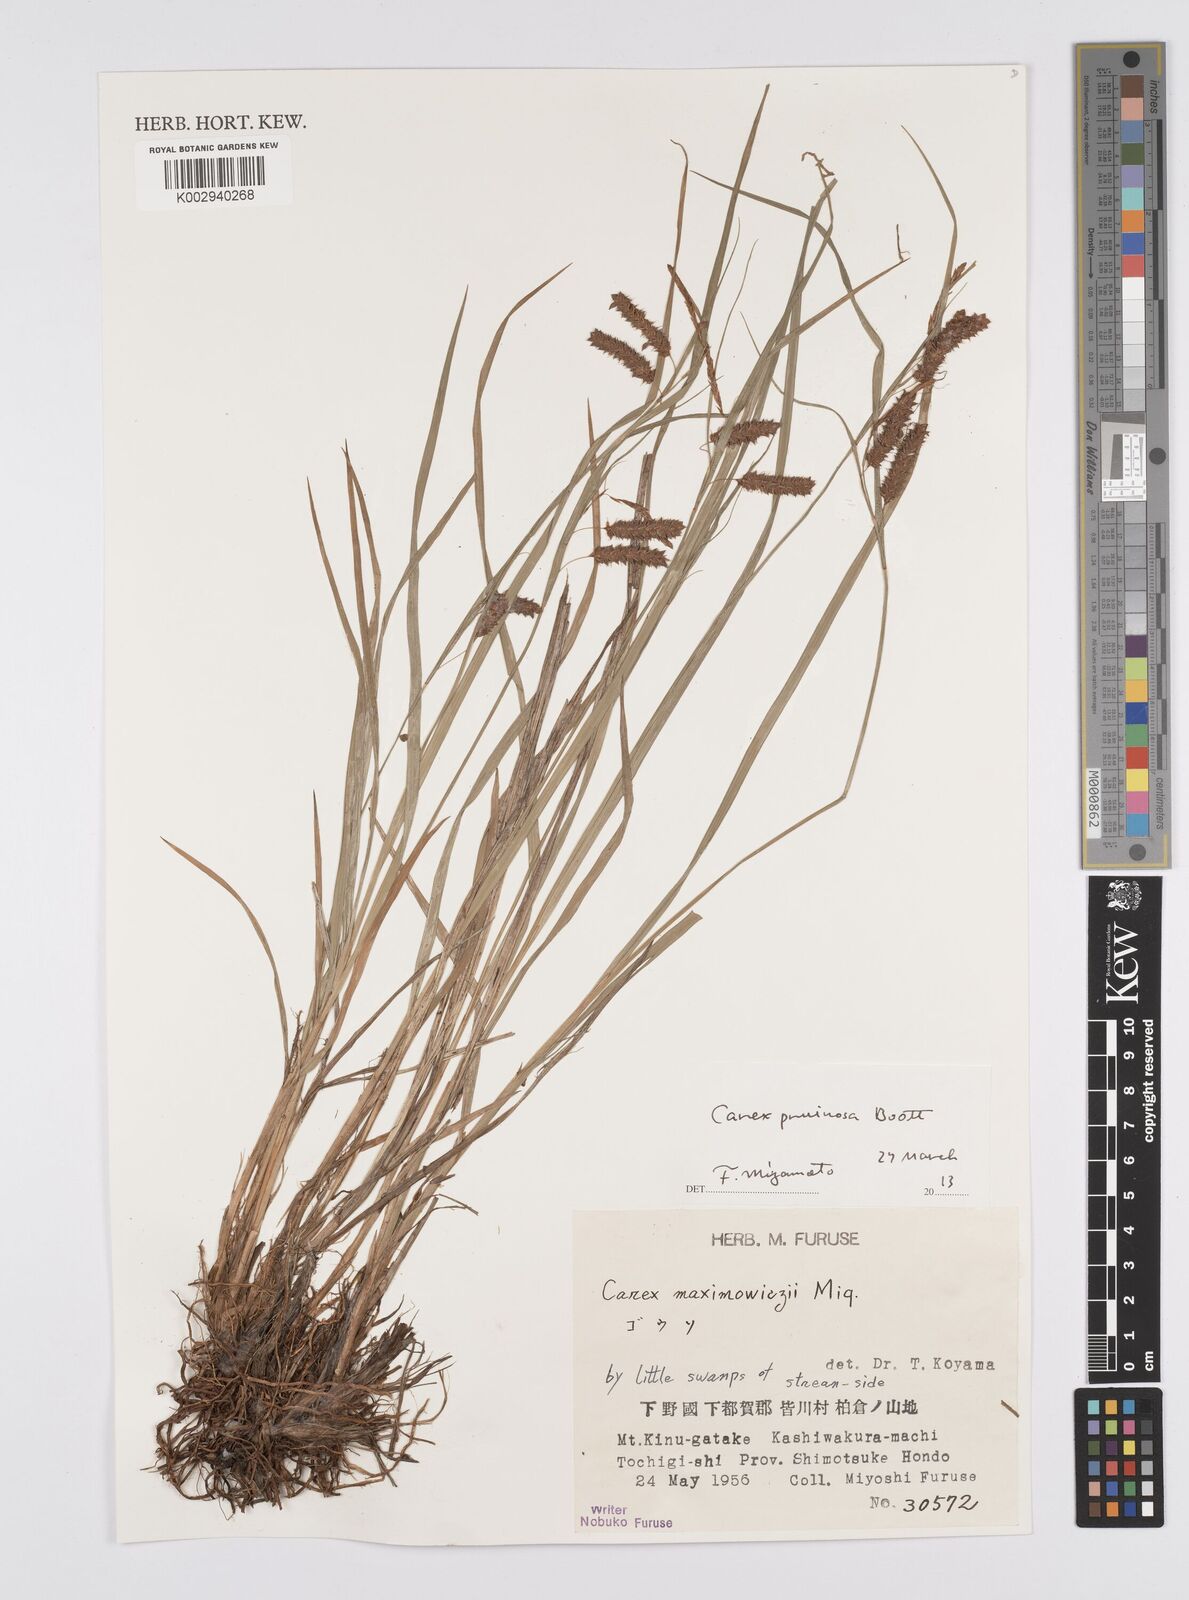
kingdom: Plantae
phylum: Tracheophyta
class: Liliopsida
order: Poales
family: Cyperaceae
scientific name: Cyperaceae
